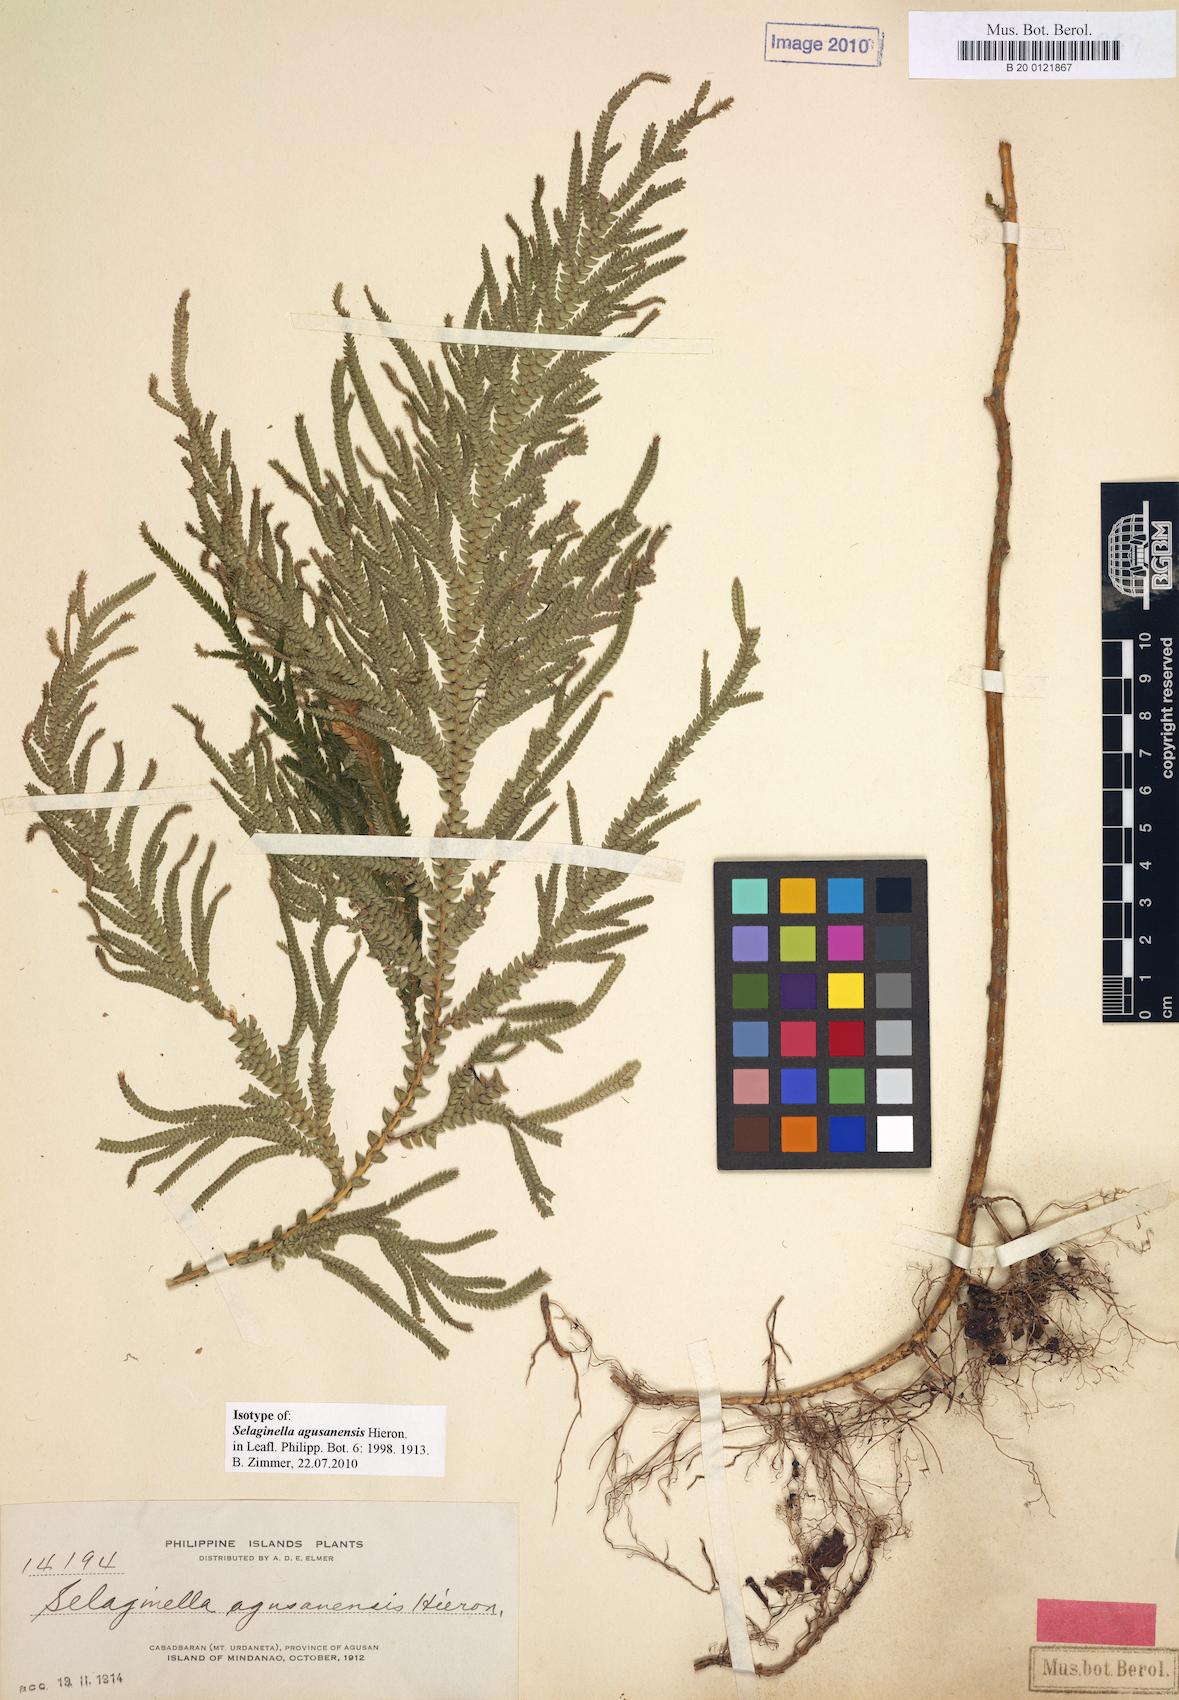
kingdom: Plantae
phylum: Tracheophyta
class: Lycopodiopsida
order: Selaginellales
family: Selaginellaceae
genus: Selaginella
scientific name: Selaginella copelandii
